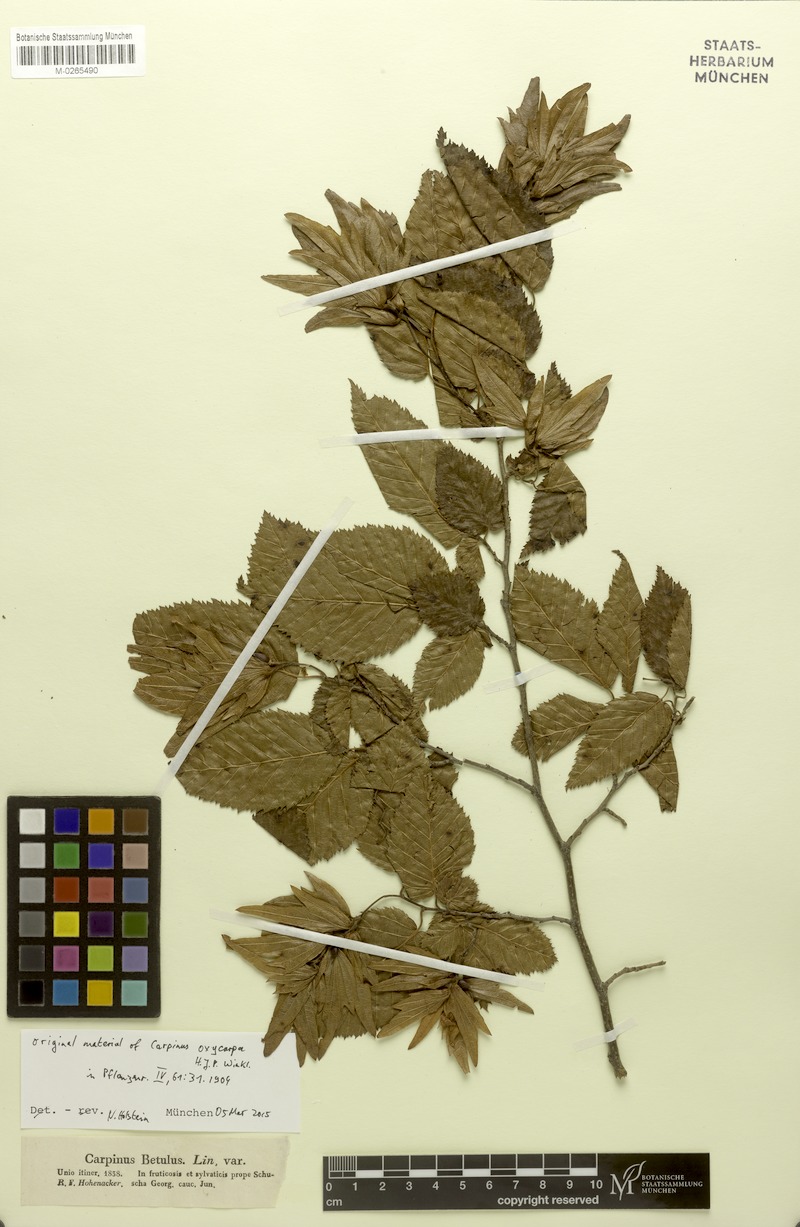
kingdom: Plantae
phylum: Tracheophyta
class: Magnoliopsida
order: Fagales
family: Betulaceae
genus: Carpinus
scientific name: Carpinus schuschaensis
